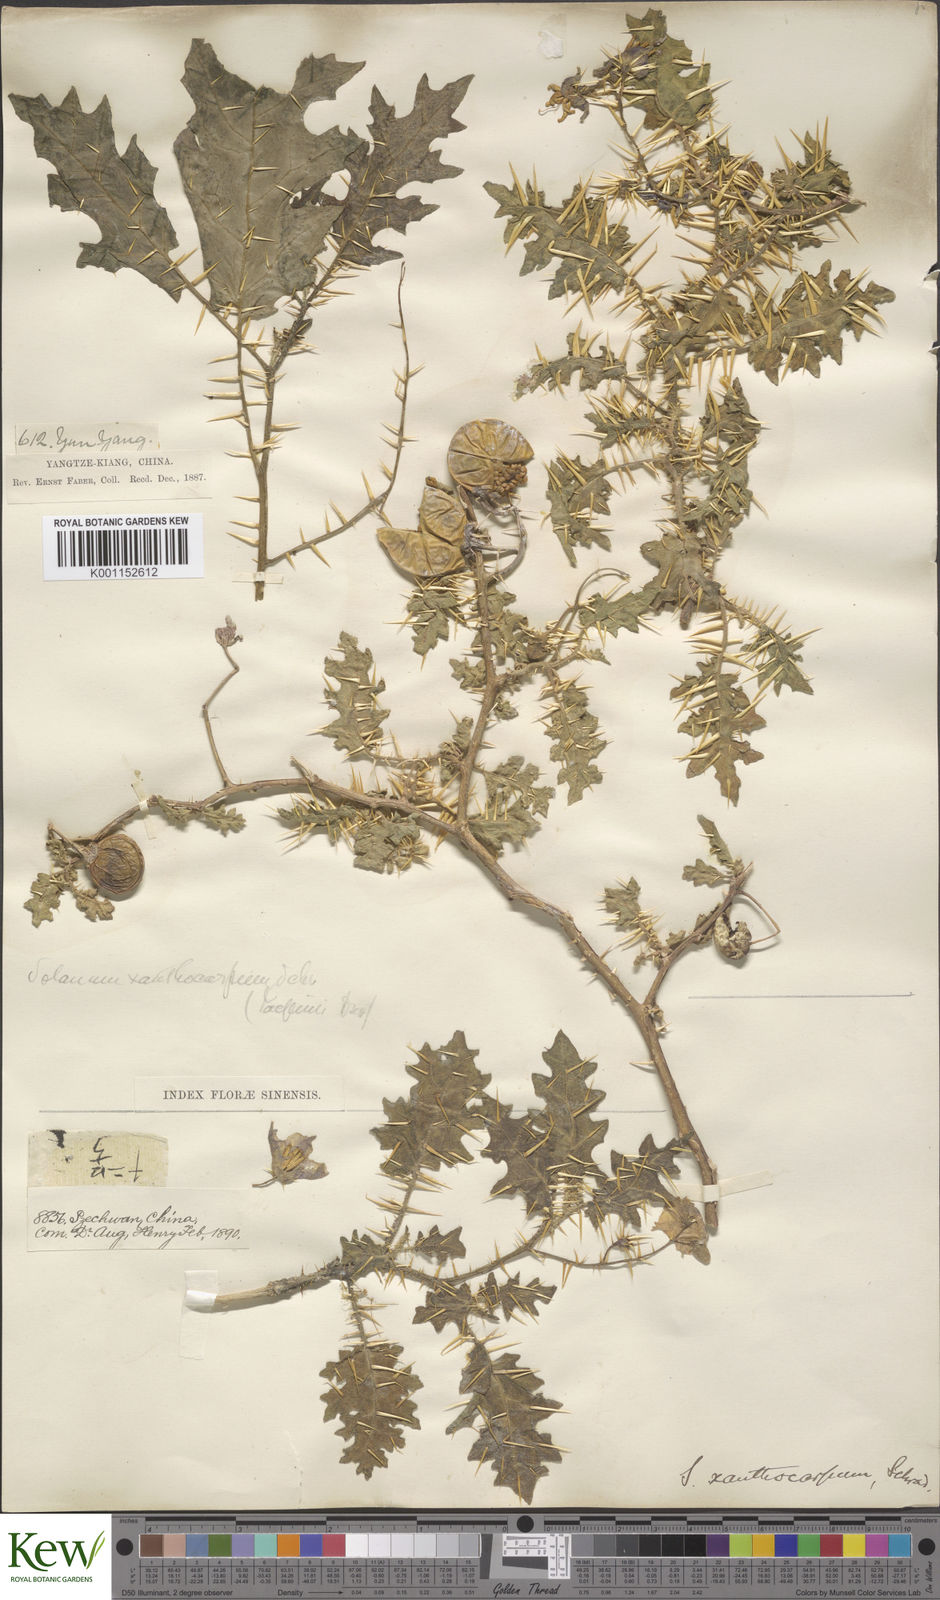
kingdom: Plantae
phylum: Tracheophyta
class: Magnoliopsida
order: Solanales
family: Solanaceae
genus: Solanum
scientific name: Solanum virginianum
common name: Surattense nightshade
